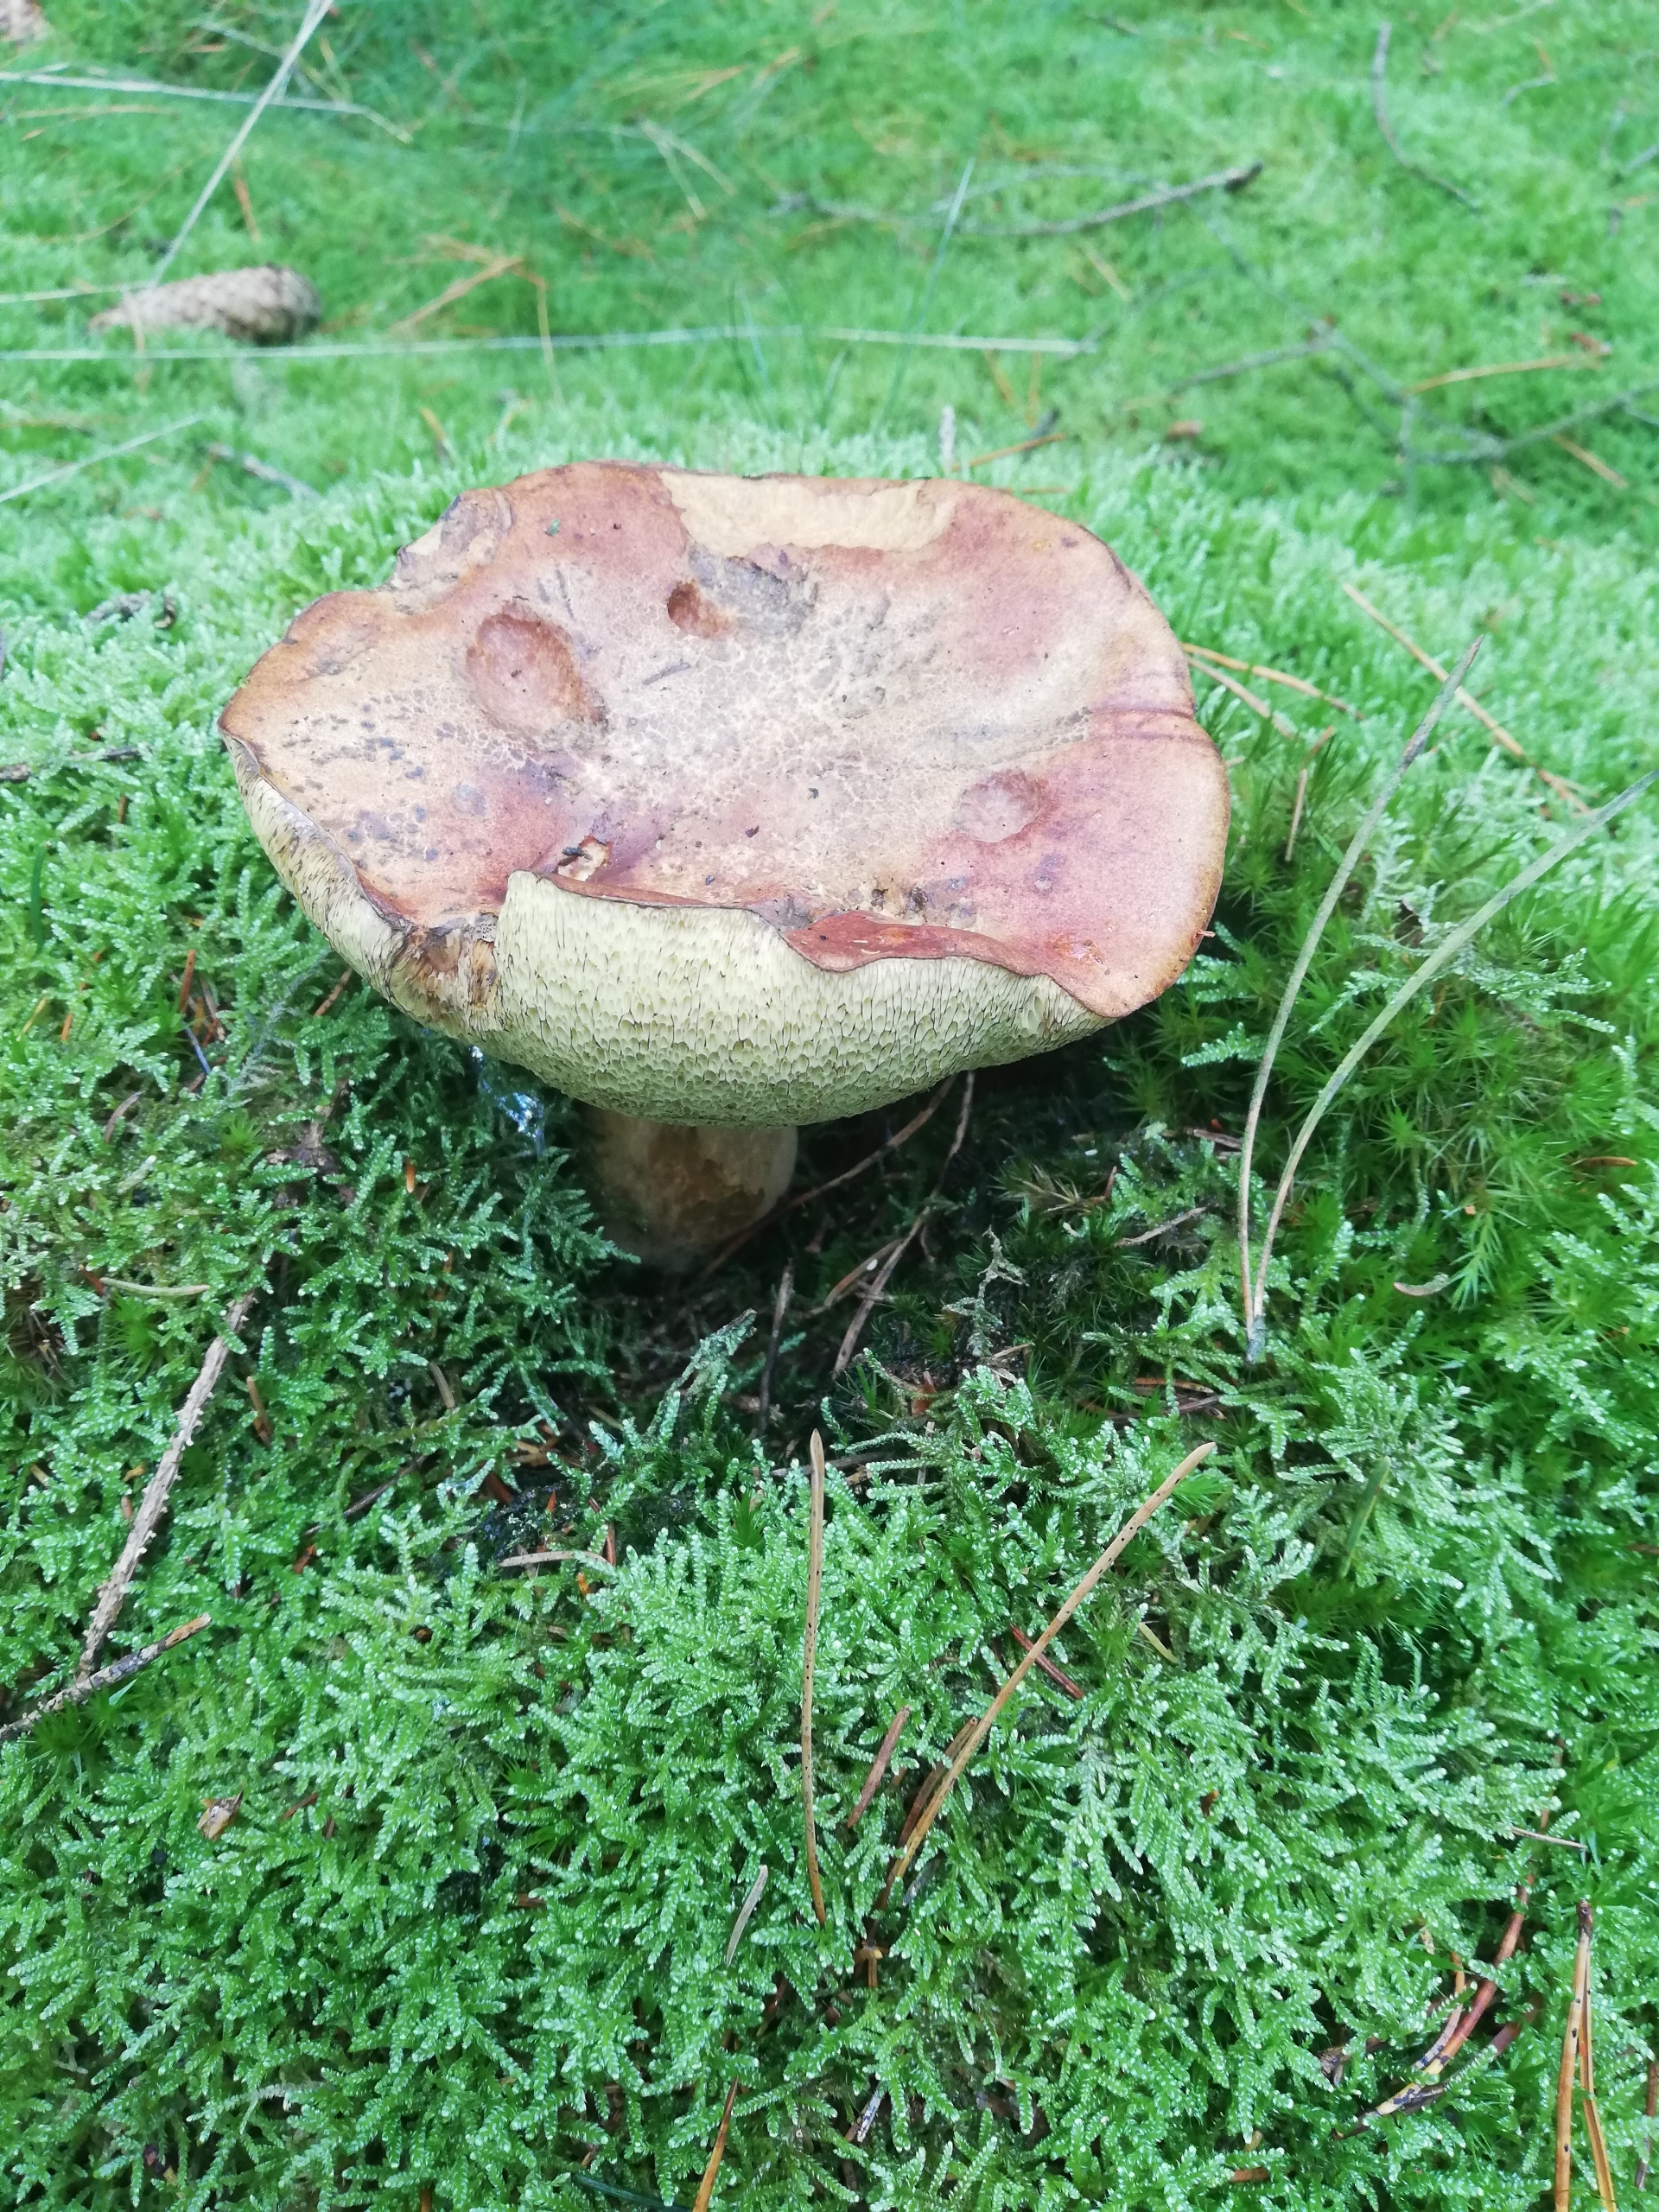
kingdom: Fungi
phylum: Basidiomycota
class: Agaricomycetes
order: Boletales
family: Boletaceae
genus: Imleria
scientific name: Imleria badia
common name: Brunstokket rørhat
